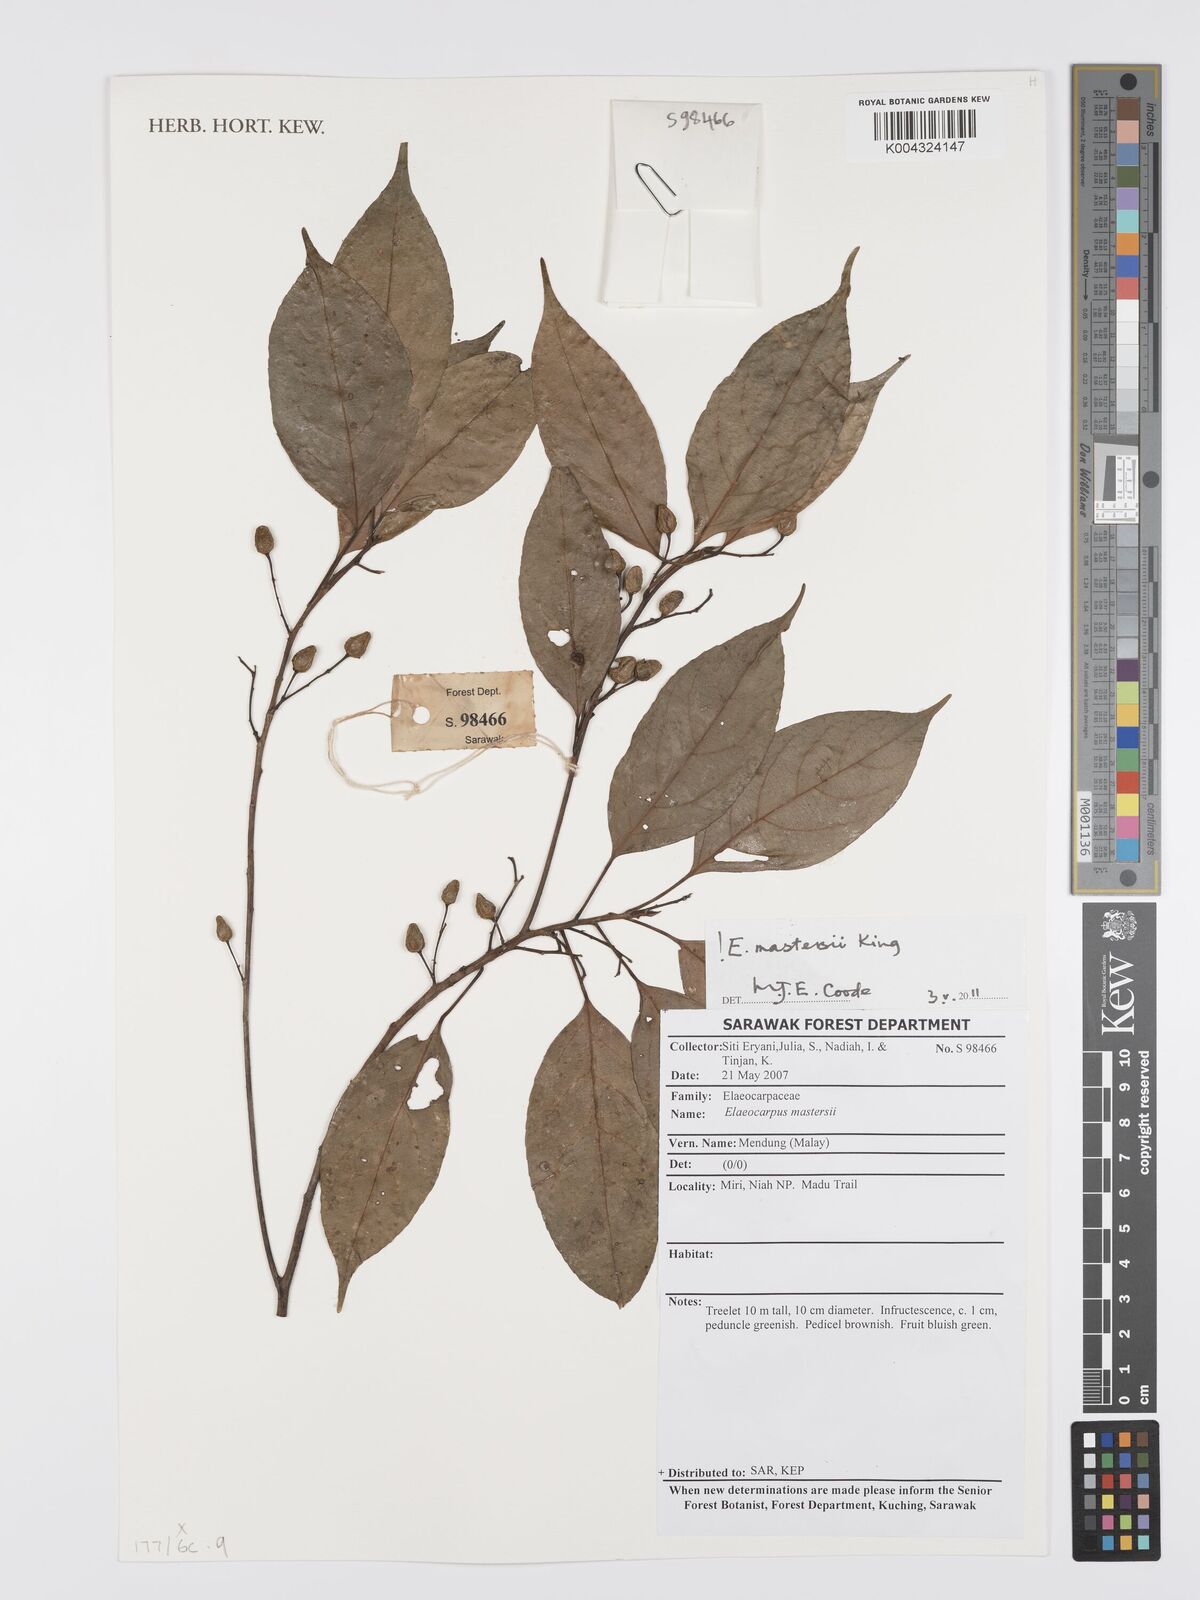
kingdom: Plantae
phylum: Tracheophyta
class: Magnoliopsida
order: Oxalidales
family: Elaeocarpaceae
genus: Elaeocarpus
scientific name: Elaeocarpus mastersii
